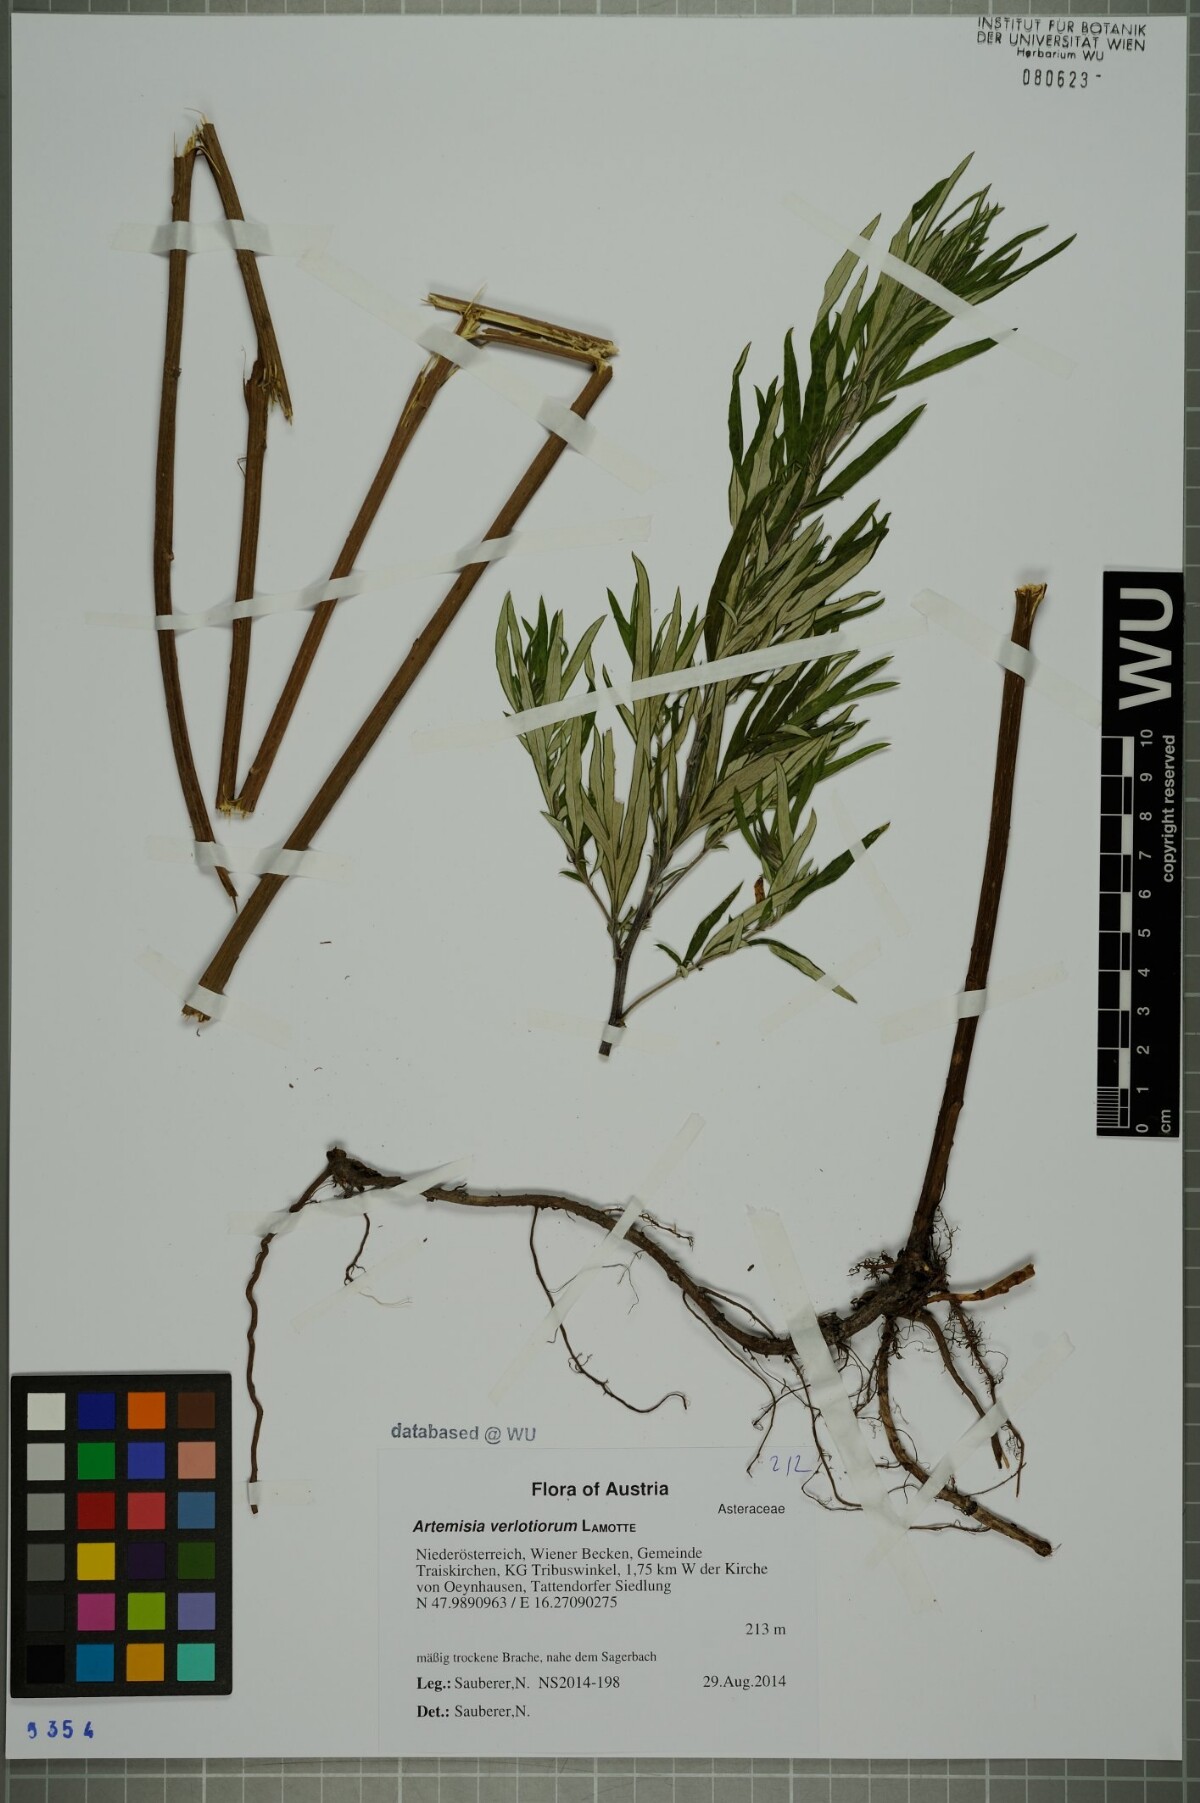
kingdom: Plantae
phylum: Tracheophyta
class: Magnoliopsida
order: Asterales
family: Asteraceae
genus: Artemisia
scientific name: Artemisia verlotiorum
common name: Chinese mugwort
